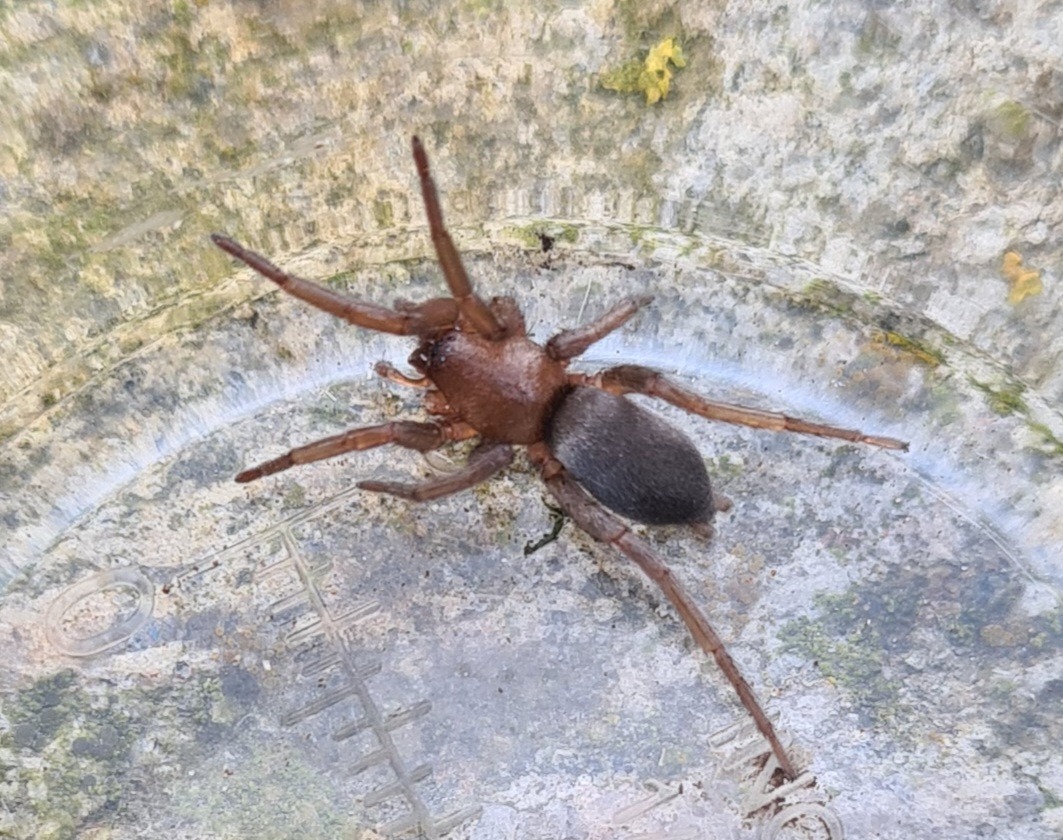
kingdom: Animalia
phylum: Arthropoda
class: Arachnida
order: Araneae
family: Gnaphosidae
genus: Scotophaeus
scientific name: Scotophaeus
